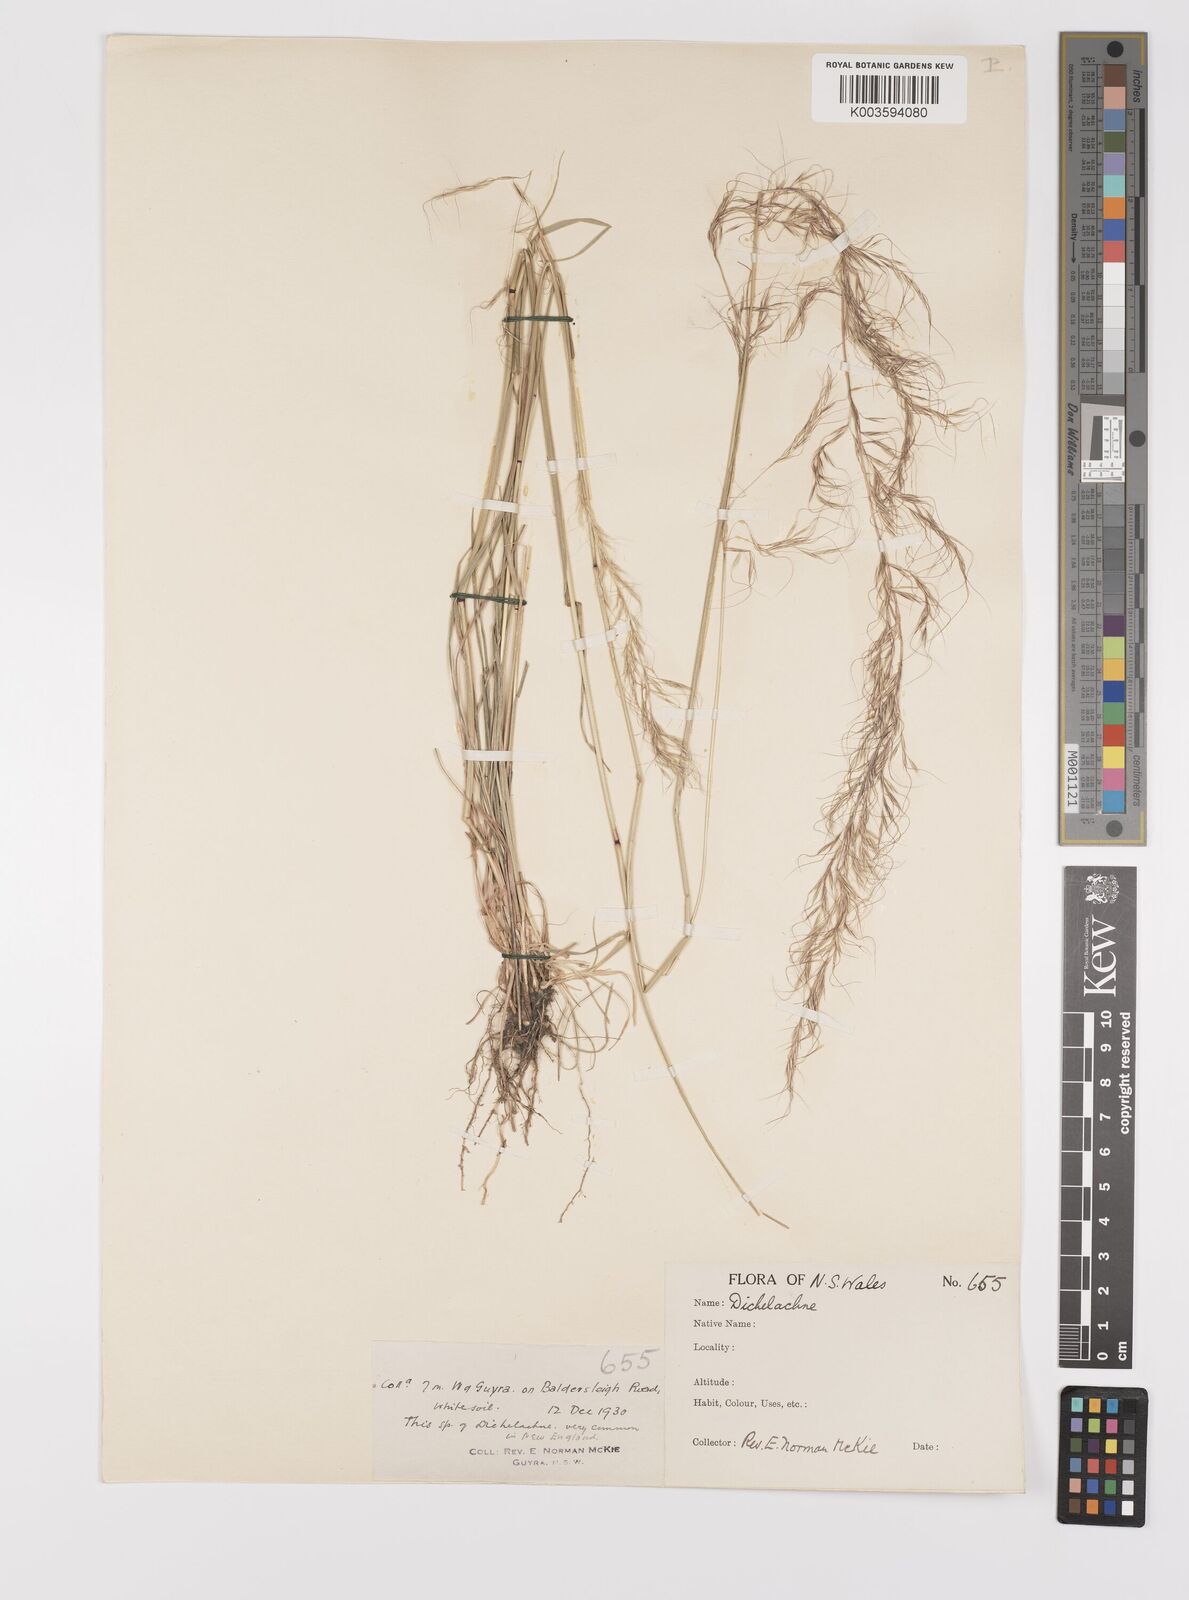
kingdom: Plantae
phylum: Tracheophyta
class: Liliopsida
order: Poales
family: Poaceae
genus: Dichelachne
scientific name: Dichelachne rara
